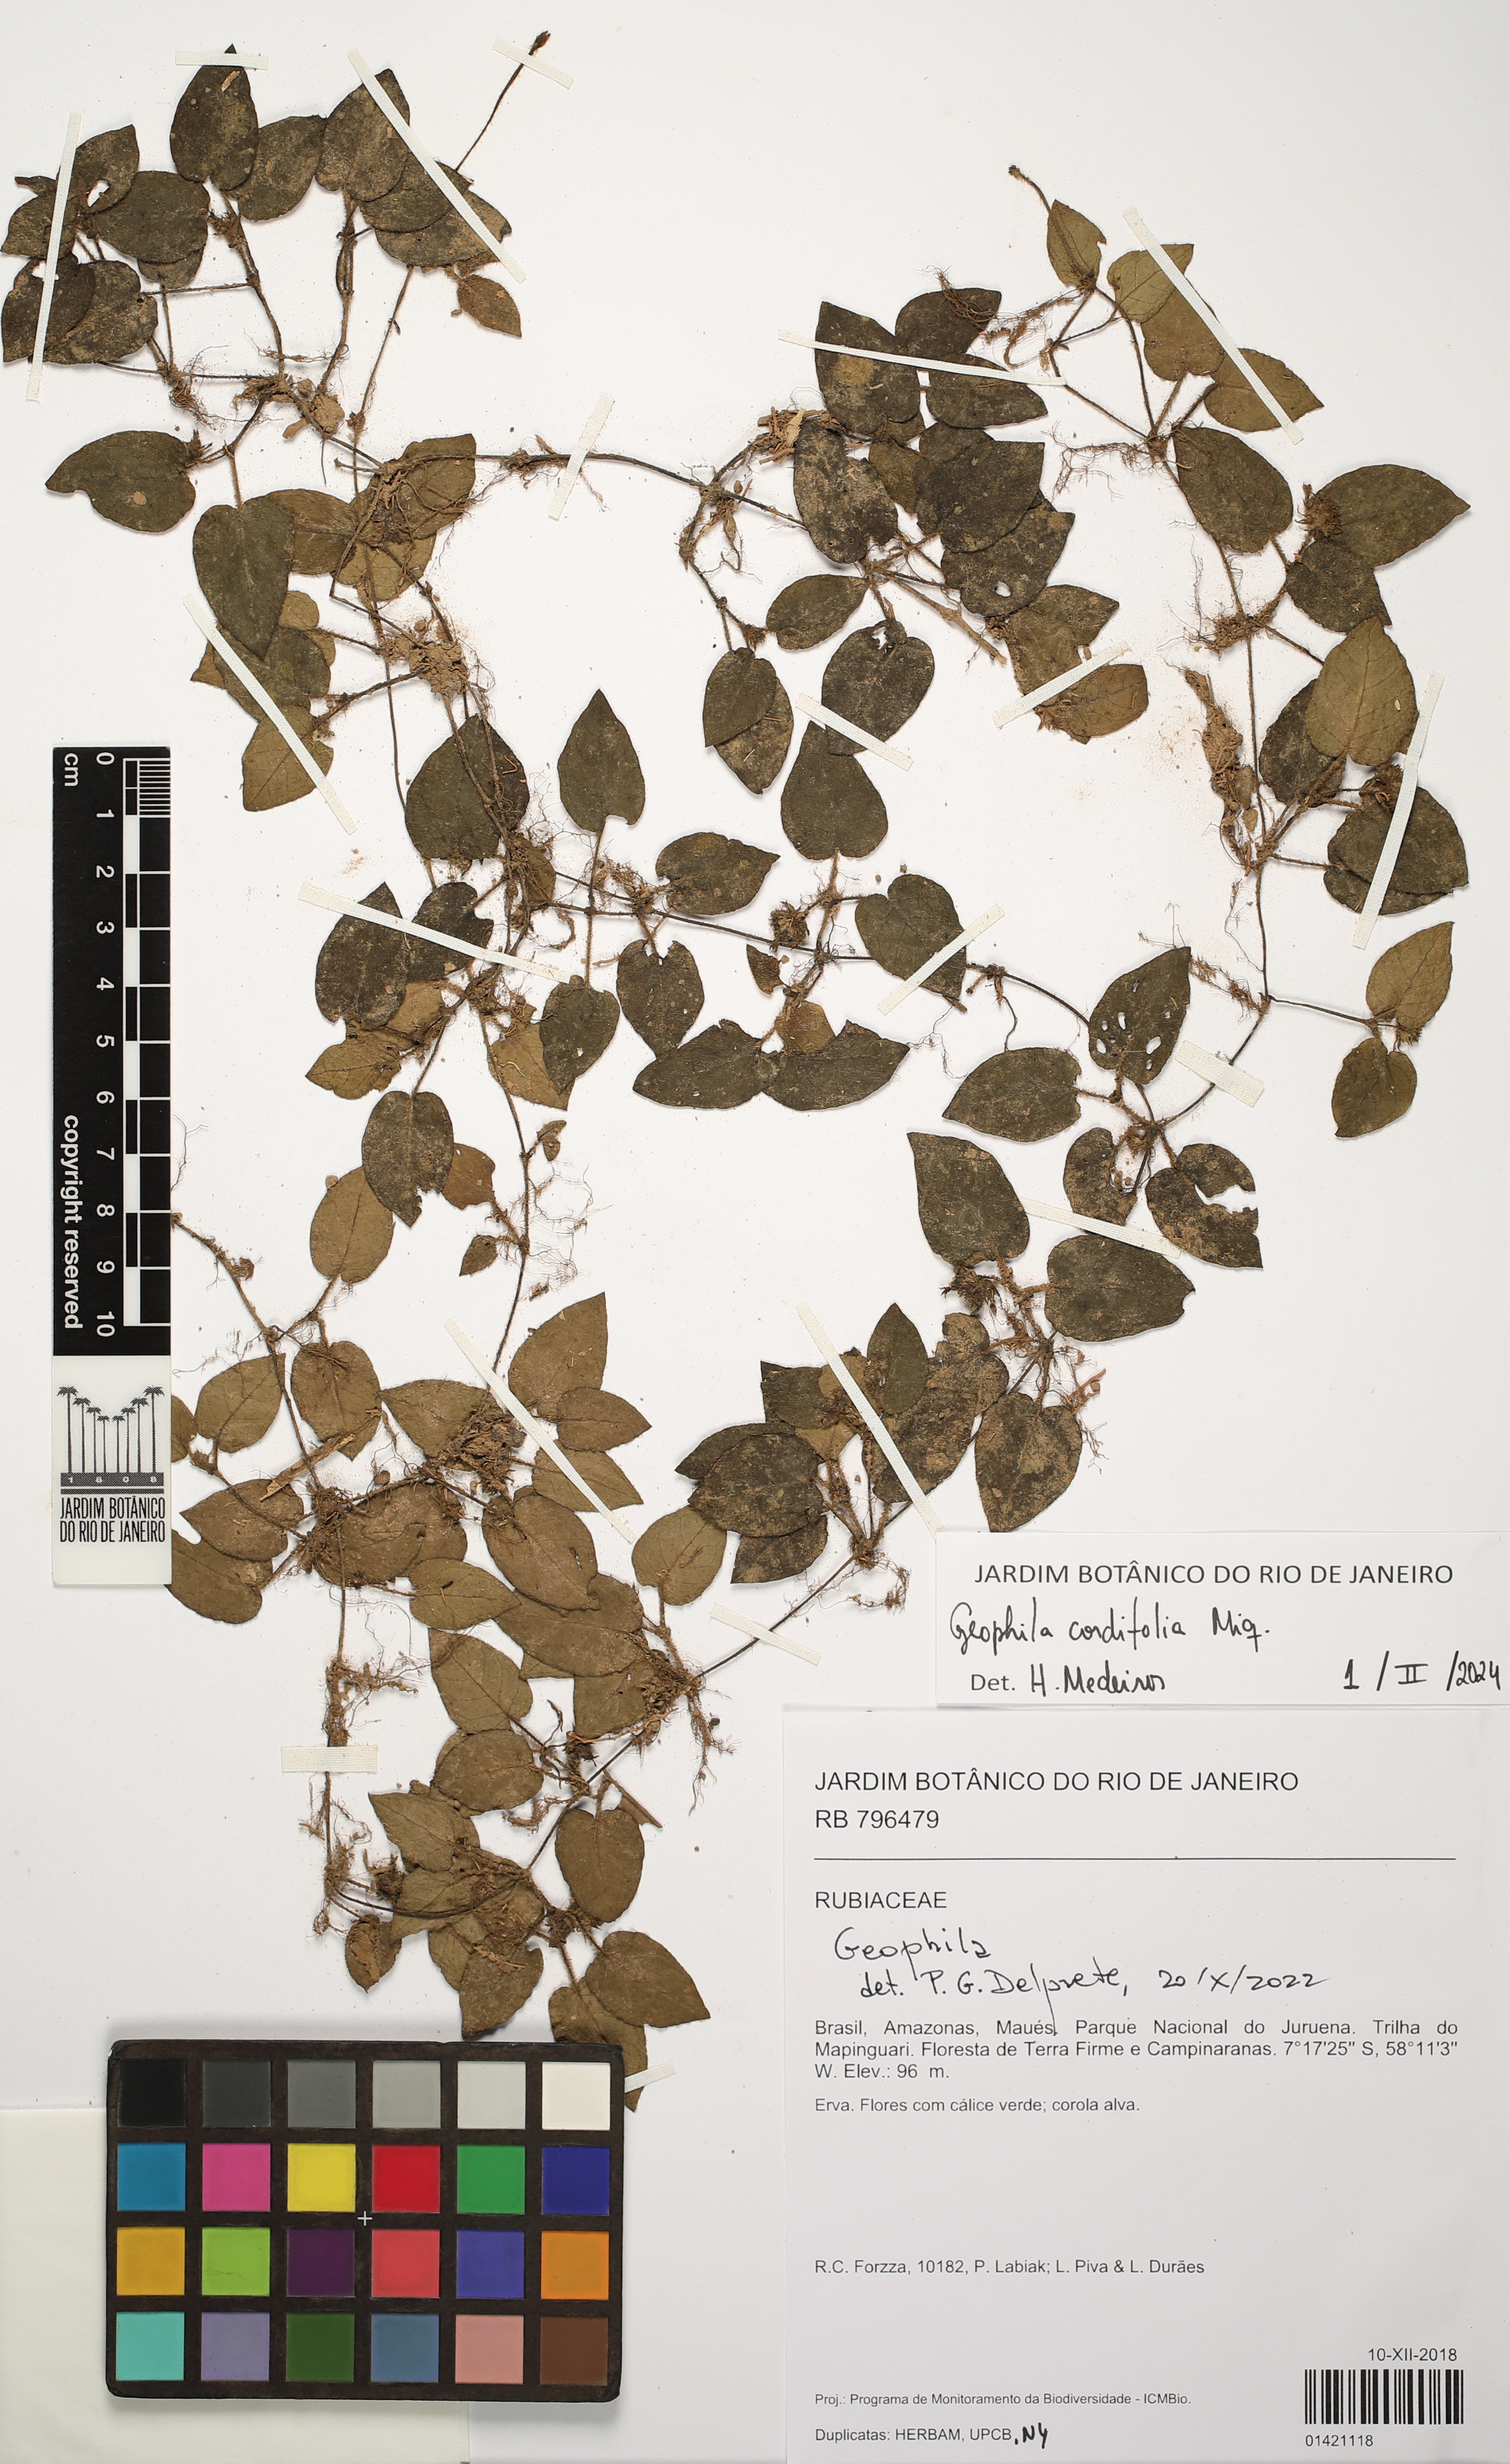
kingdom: Plantae
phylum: Tracheophyta
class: Magnoliopsida
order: Gentianales
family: Rubiaceae
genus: Geophila
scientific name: Geophila cordifolia
